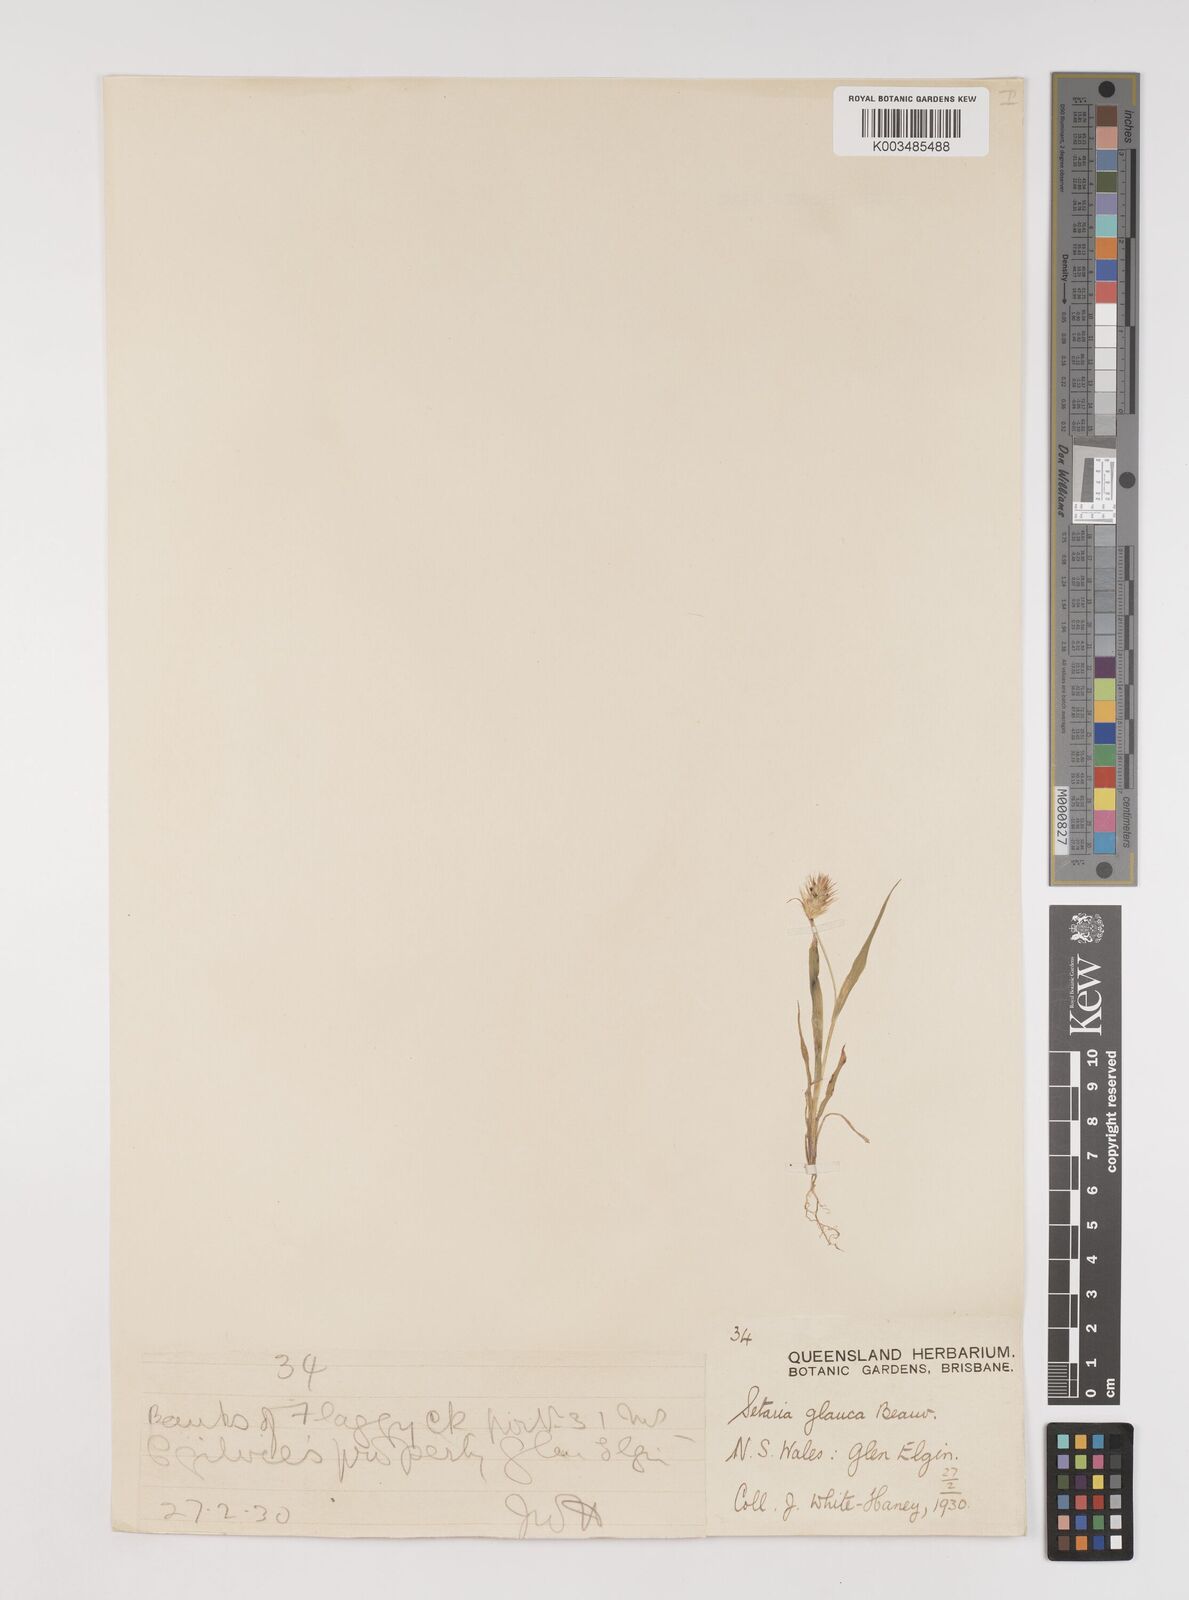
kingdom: Plantae
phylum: Tracheophyta
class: Liliopsida
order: Poales
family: Poaceae
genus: Setaria
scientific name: Setaria pumila
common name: Yellow bristle-grass
